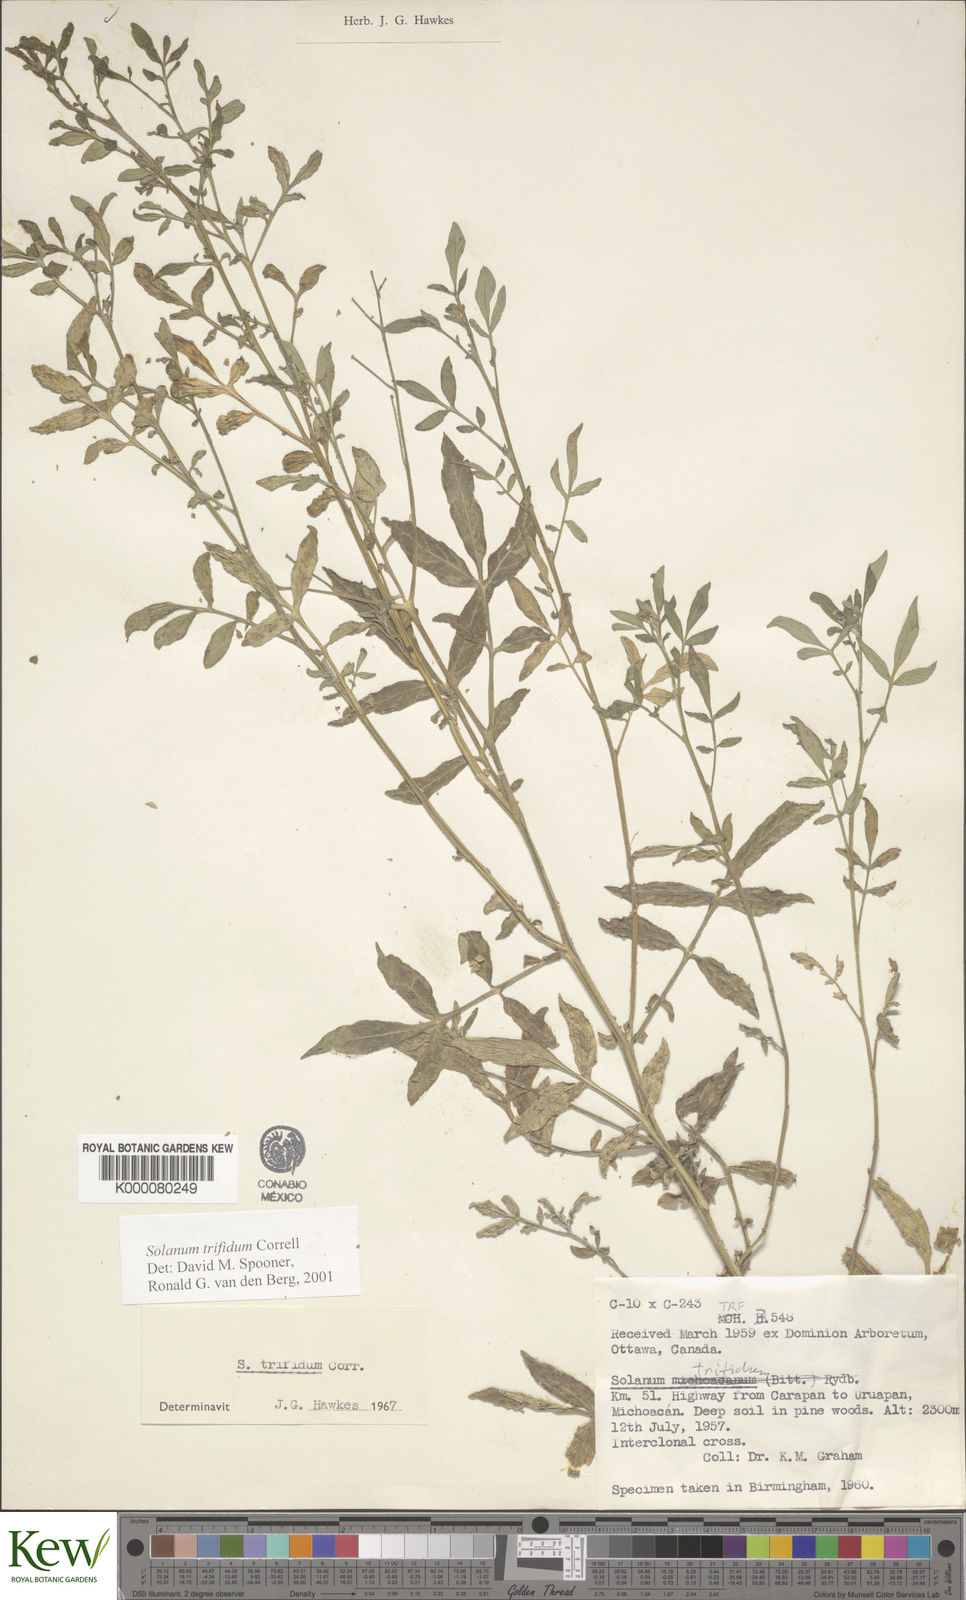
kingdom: Plantae
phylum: Tracheophyta
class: Magnoliopsida
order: Solanales
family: Solanaceae
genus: Solanum
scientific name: Solanum trifidum
